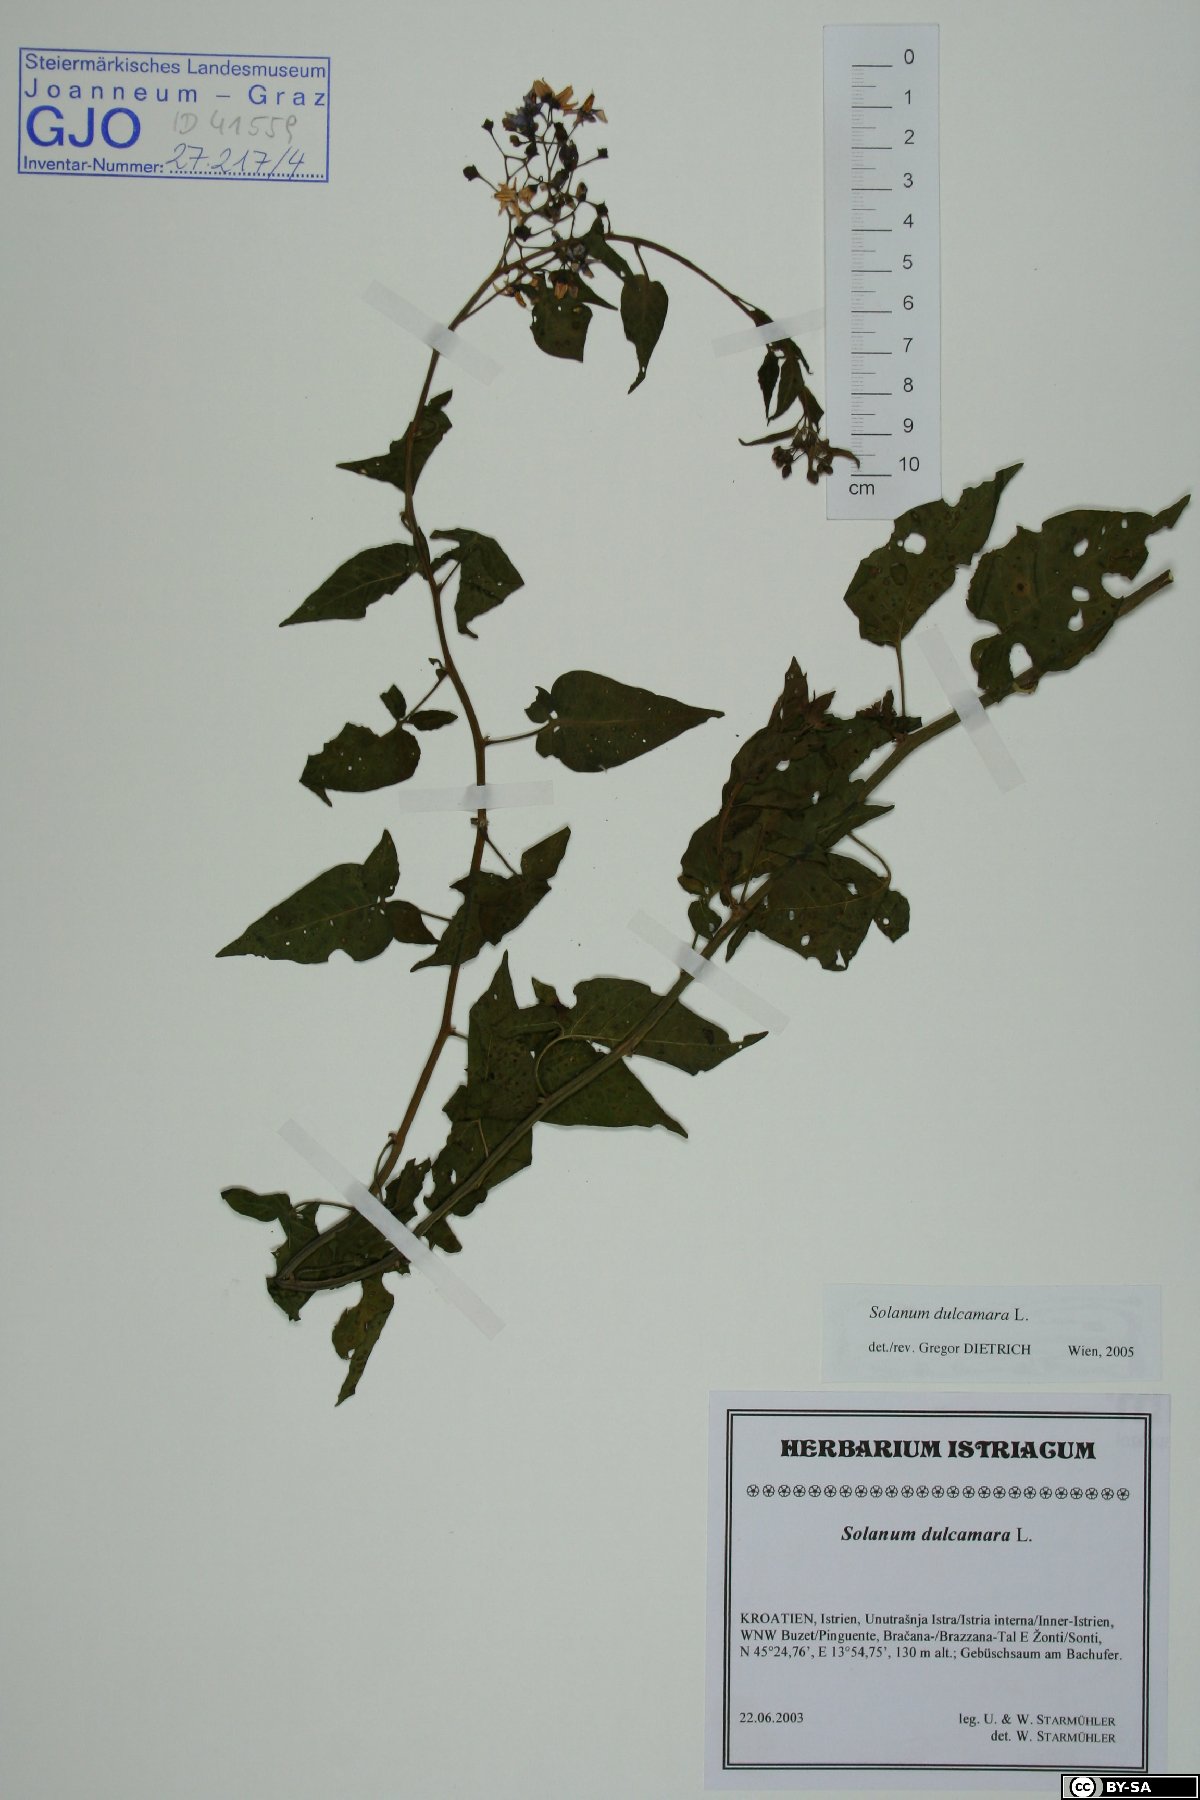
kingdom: Plantae
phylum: Tracheophyta
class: Magnoliopsida
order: Solanales
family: Solanaceae
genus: Solanum
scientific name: Solanum dulcamara
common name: Climbing nightshade
